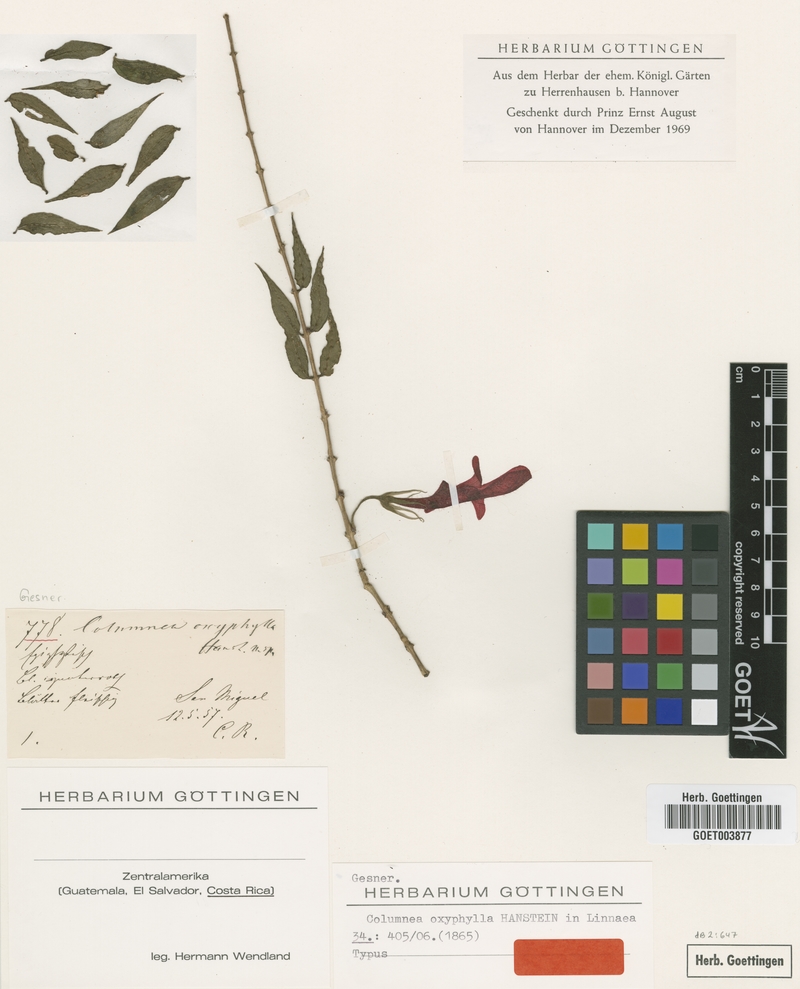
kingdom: Plantae
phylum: Tracheophyta
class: Magnoliopsida
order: Lamiales
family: Gesneriaceae
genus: Columnea
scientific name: Columnea oxyphylla
